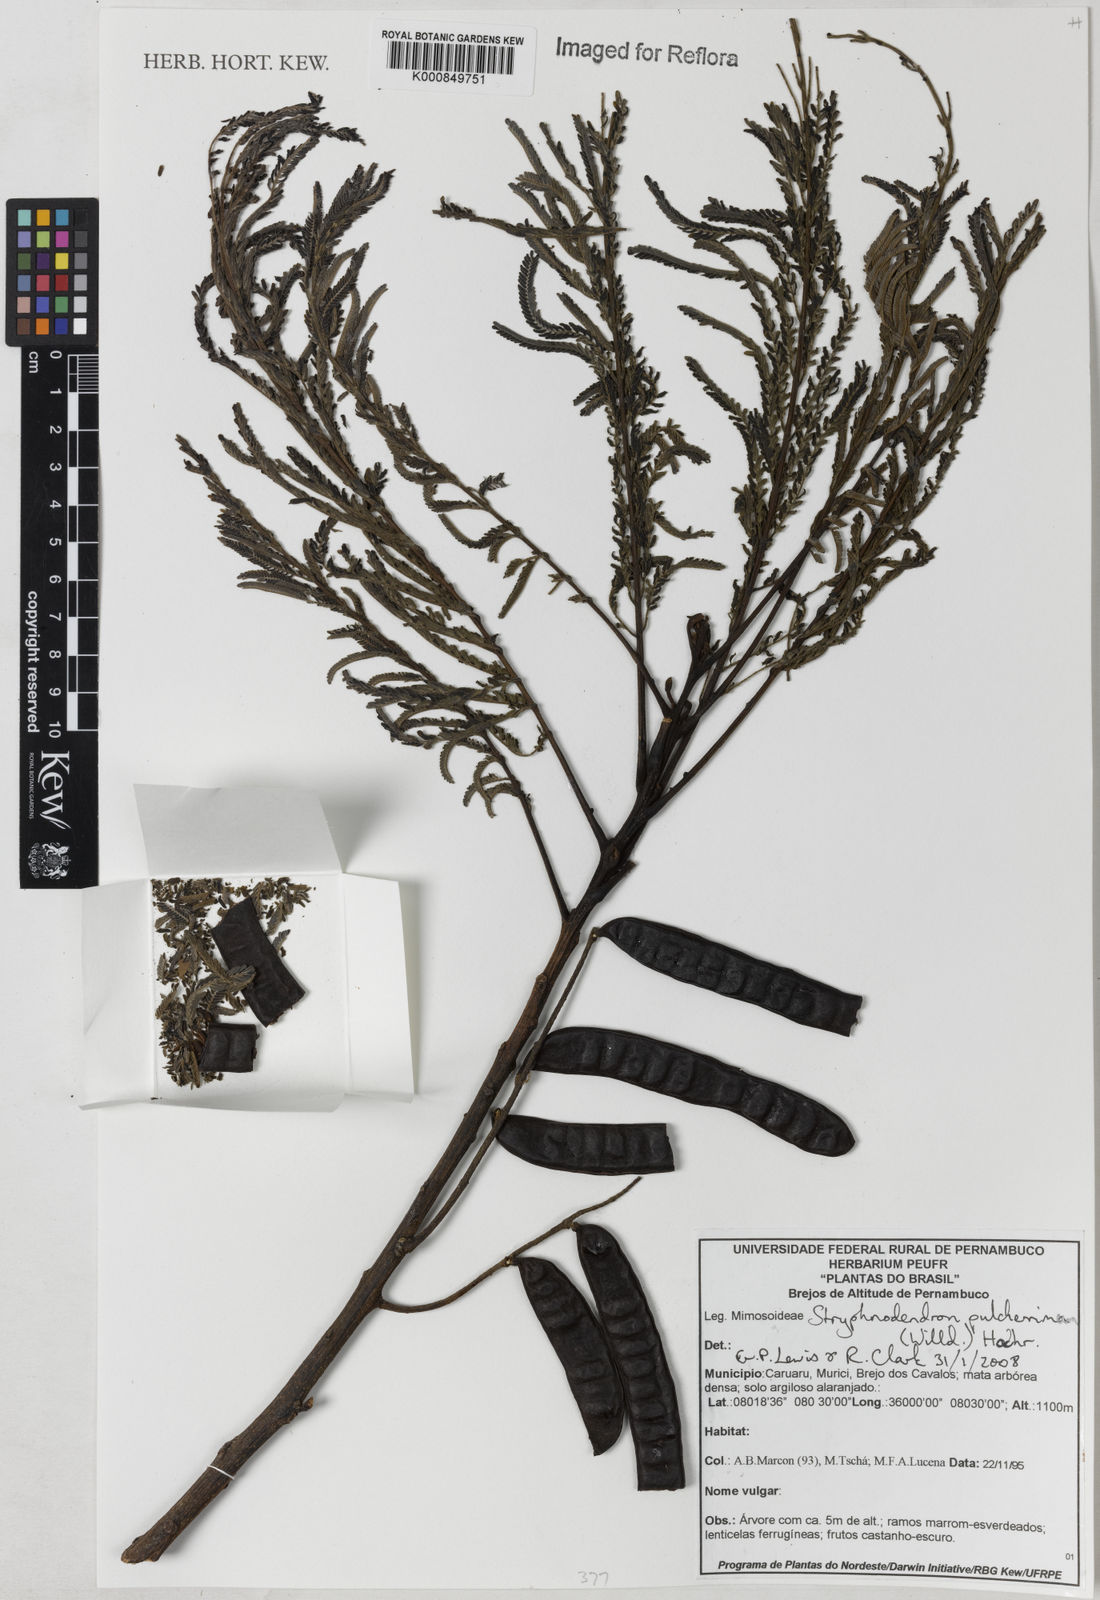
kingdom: Plantae
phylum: Tracheophyta
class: Magnoliopsida
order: Fabales
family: Fabaceae
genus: Stryphnodendron
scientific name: Stryphnodendron pulcherrimum
